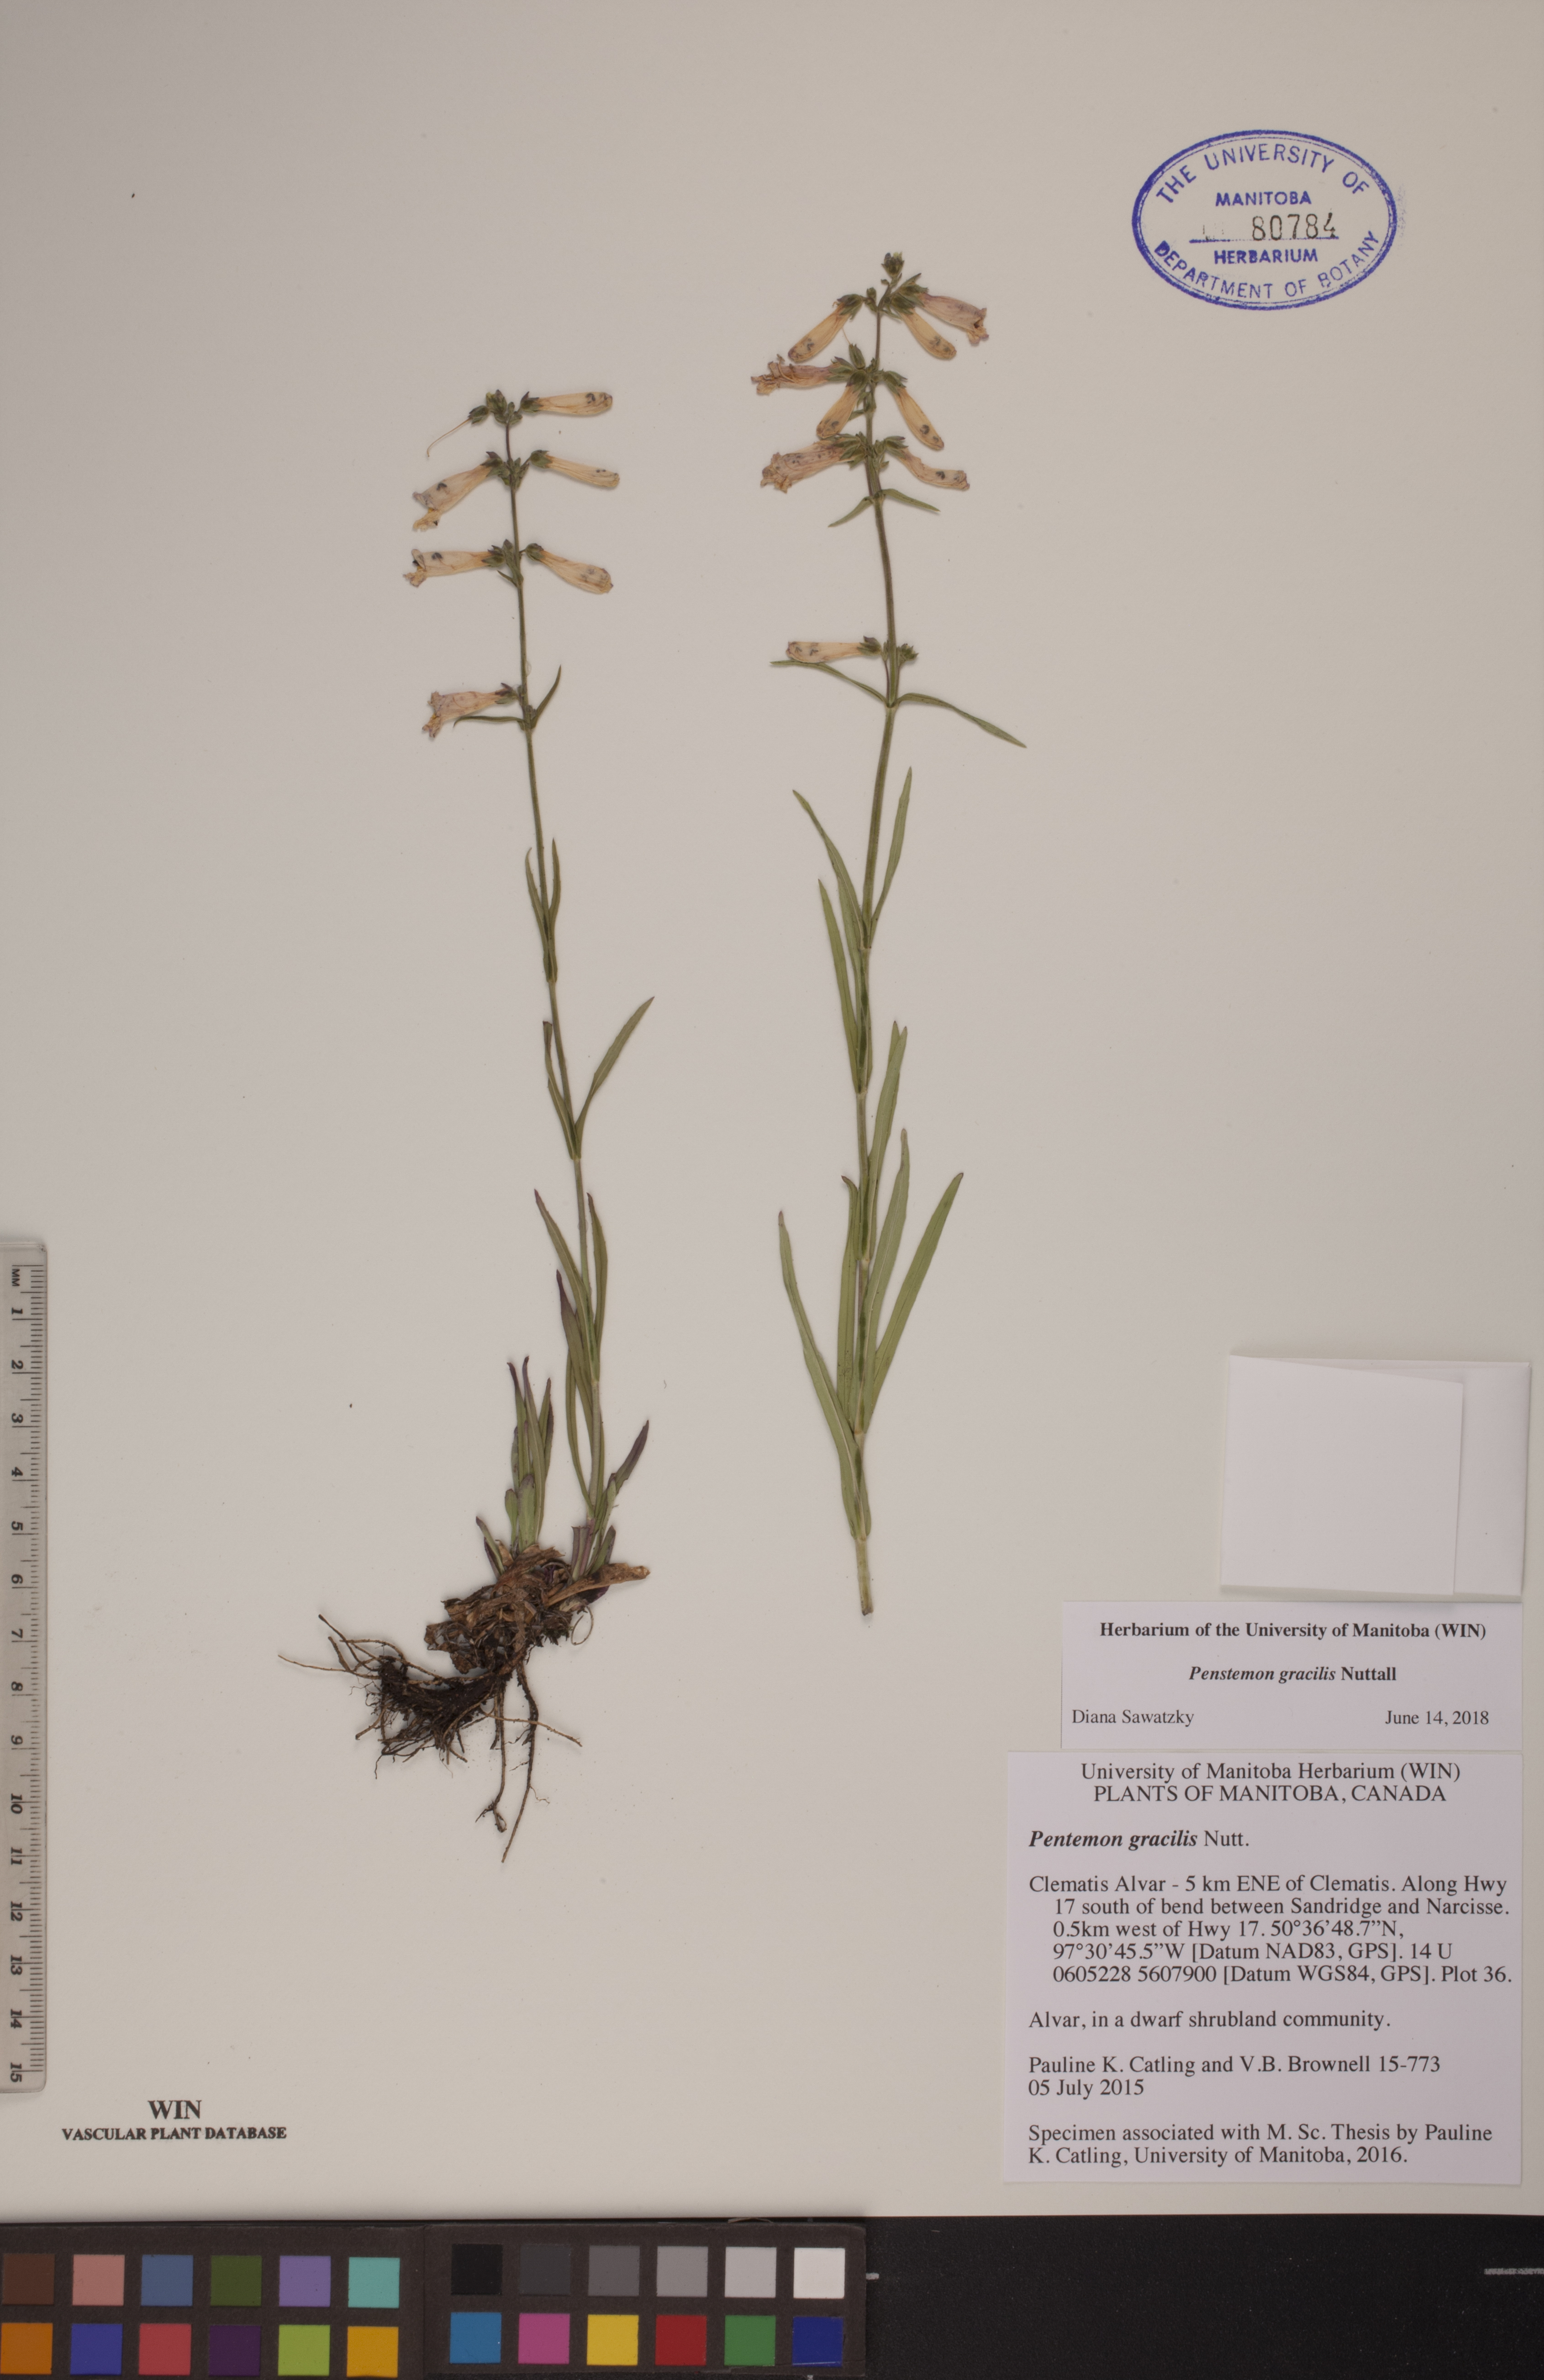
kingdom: Plantae
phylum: Tracheophyta
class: Magnoliopsida
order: Lamiales
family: Plantaginaceae
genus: Penstemon
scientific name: Penstemon gracilis
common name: Slender beardtongue
